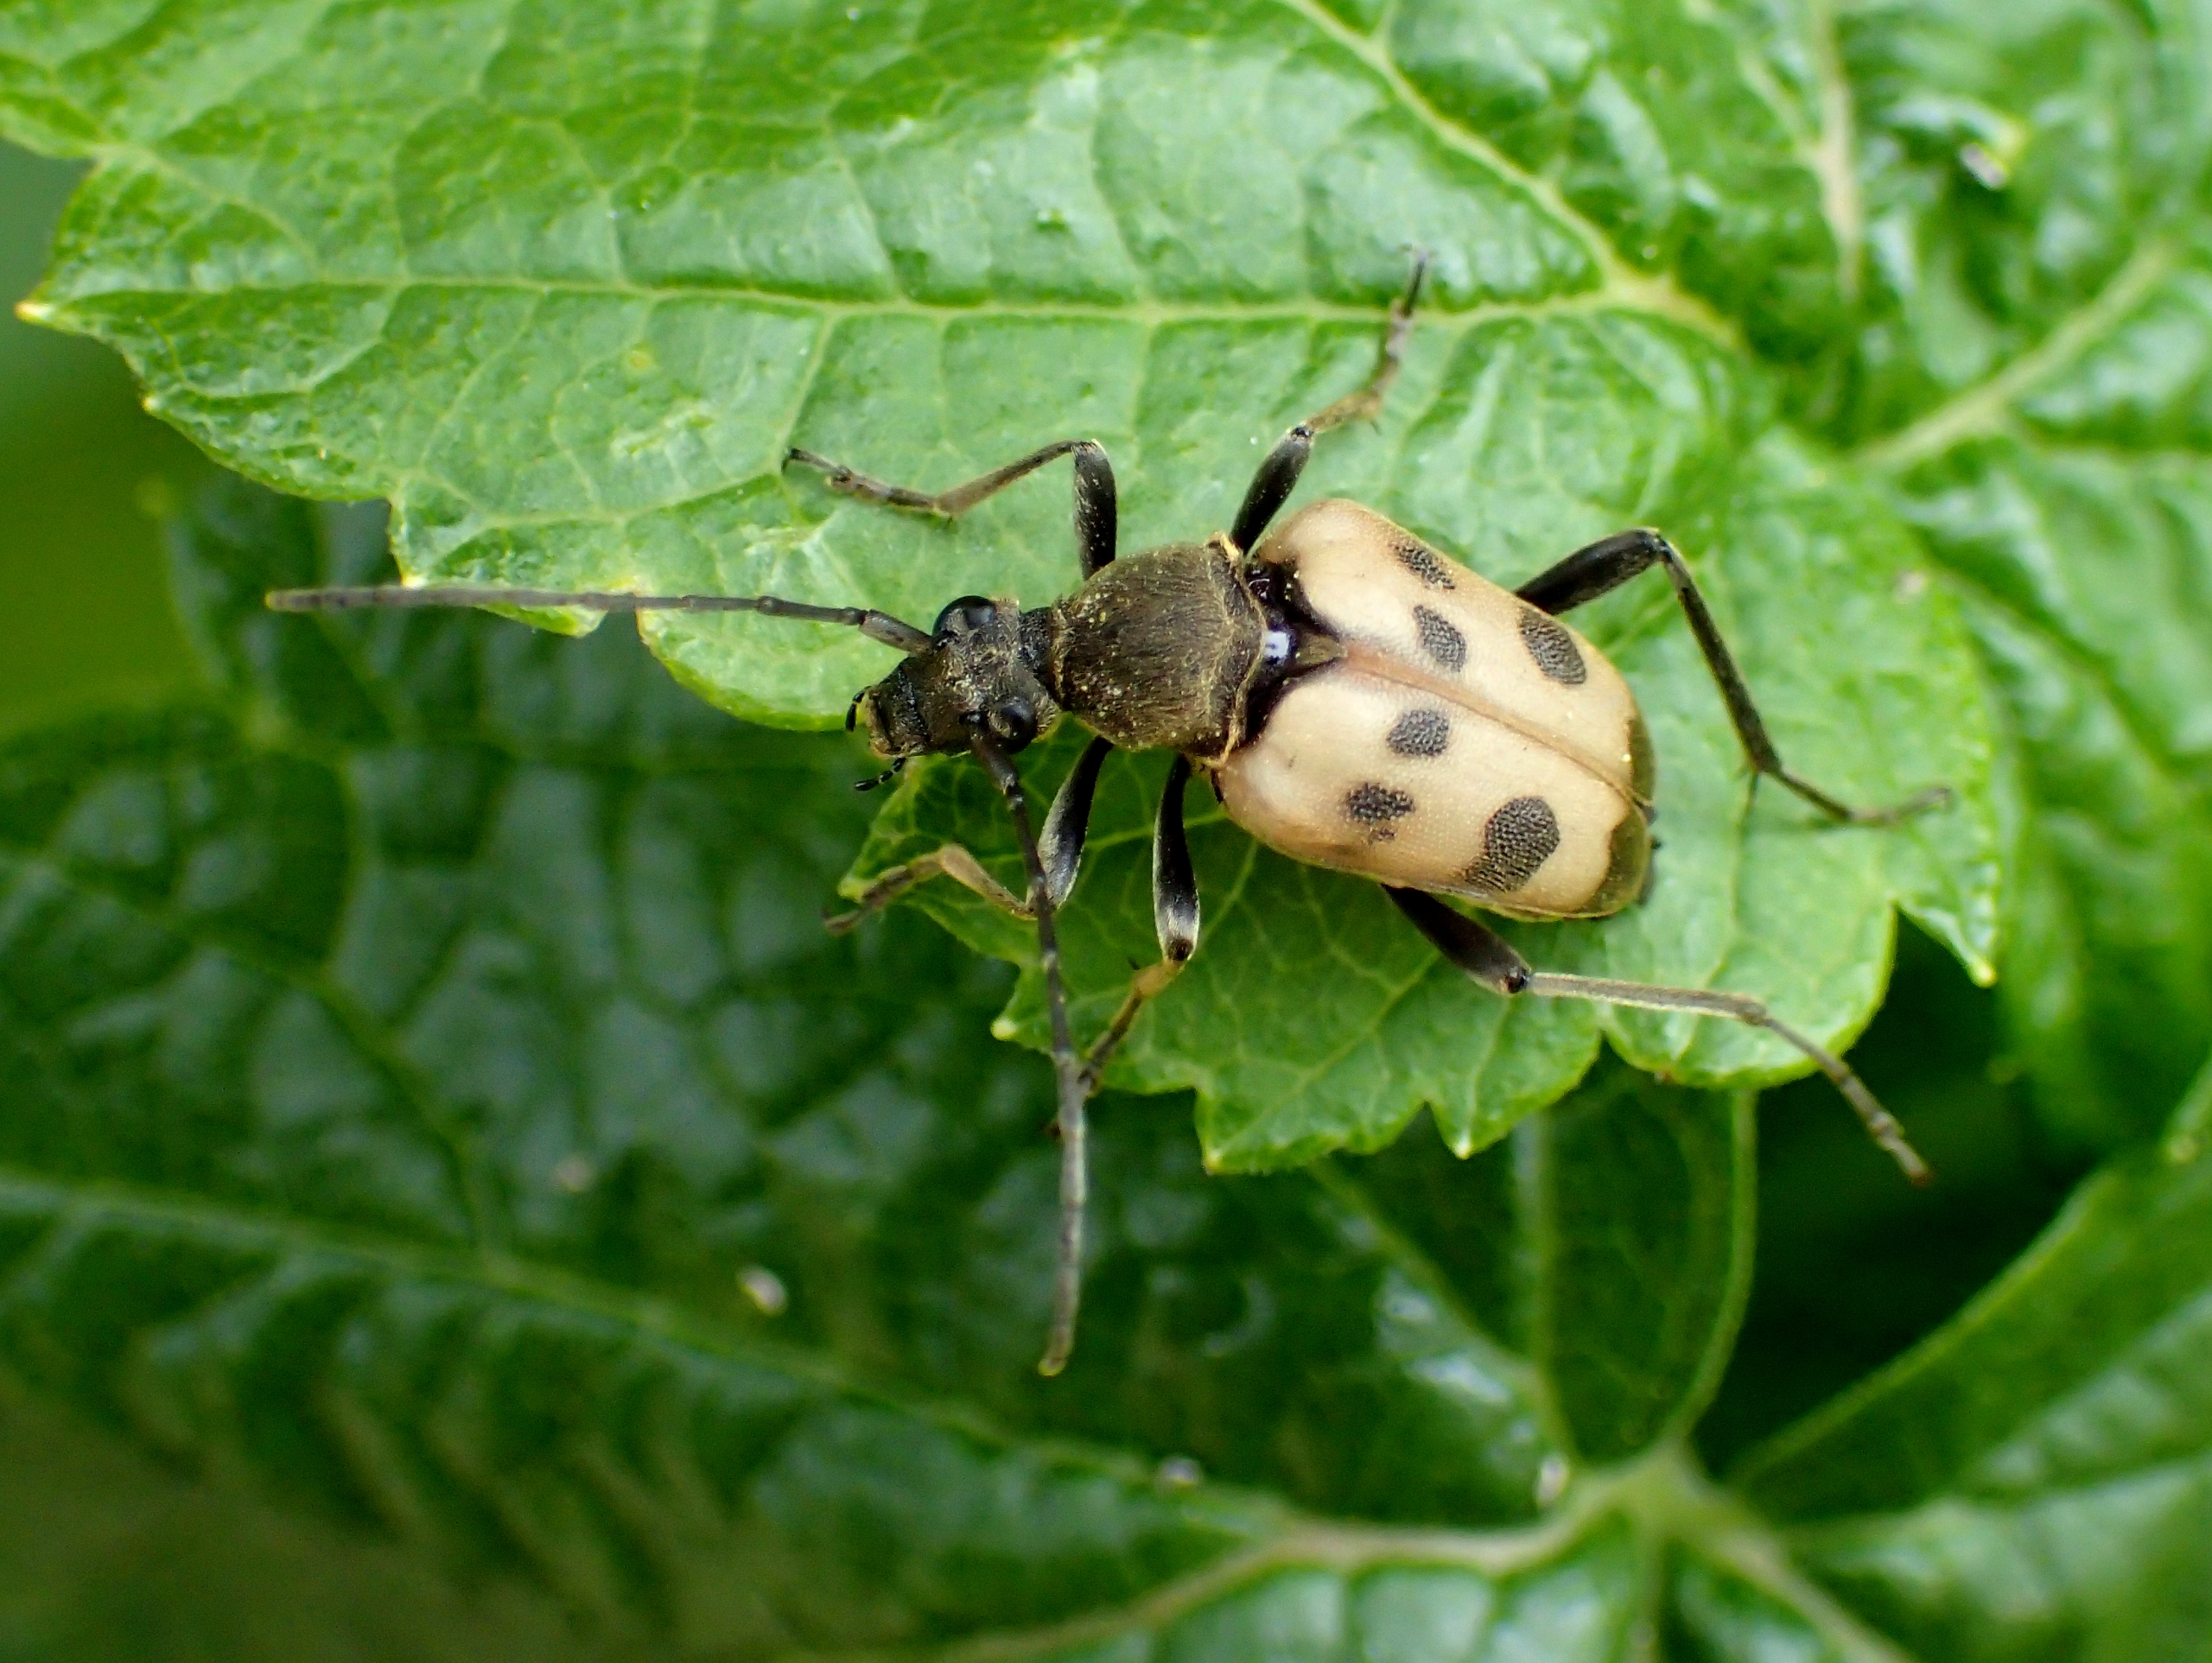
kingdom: Animalia
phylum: Arthropoda
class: Insecta
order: Coleoptera
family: Cerambycidae
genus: Pachytodes
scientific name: Pachytodes cerambyciformis
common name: Jysk blomsterbuk
